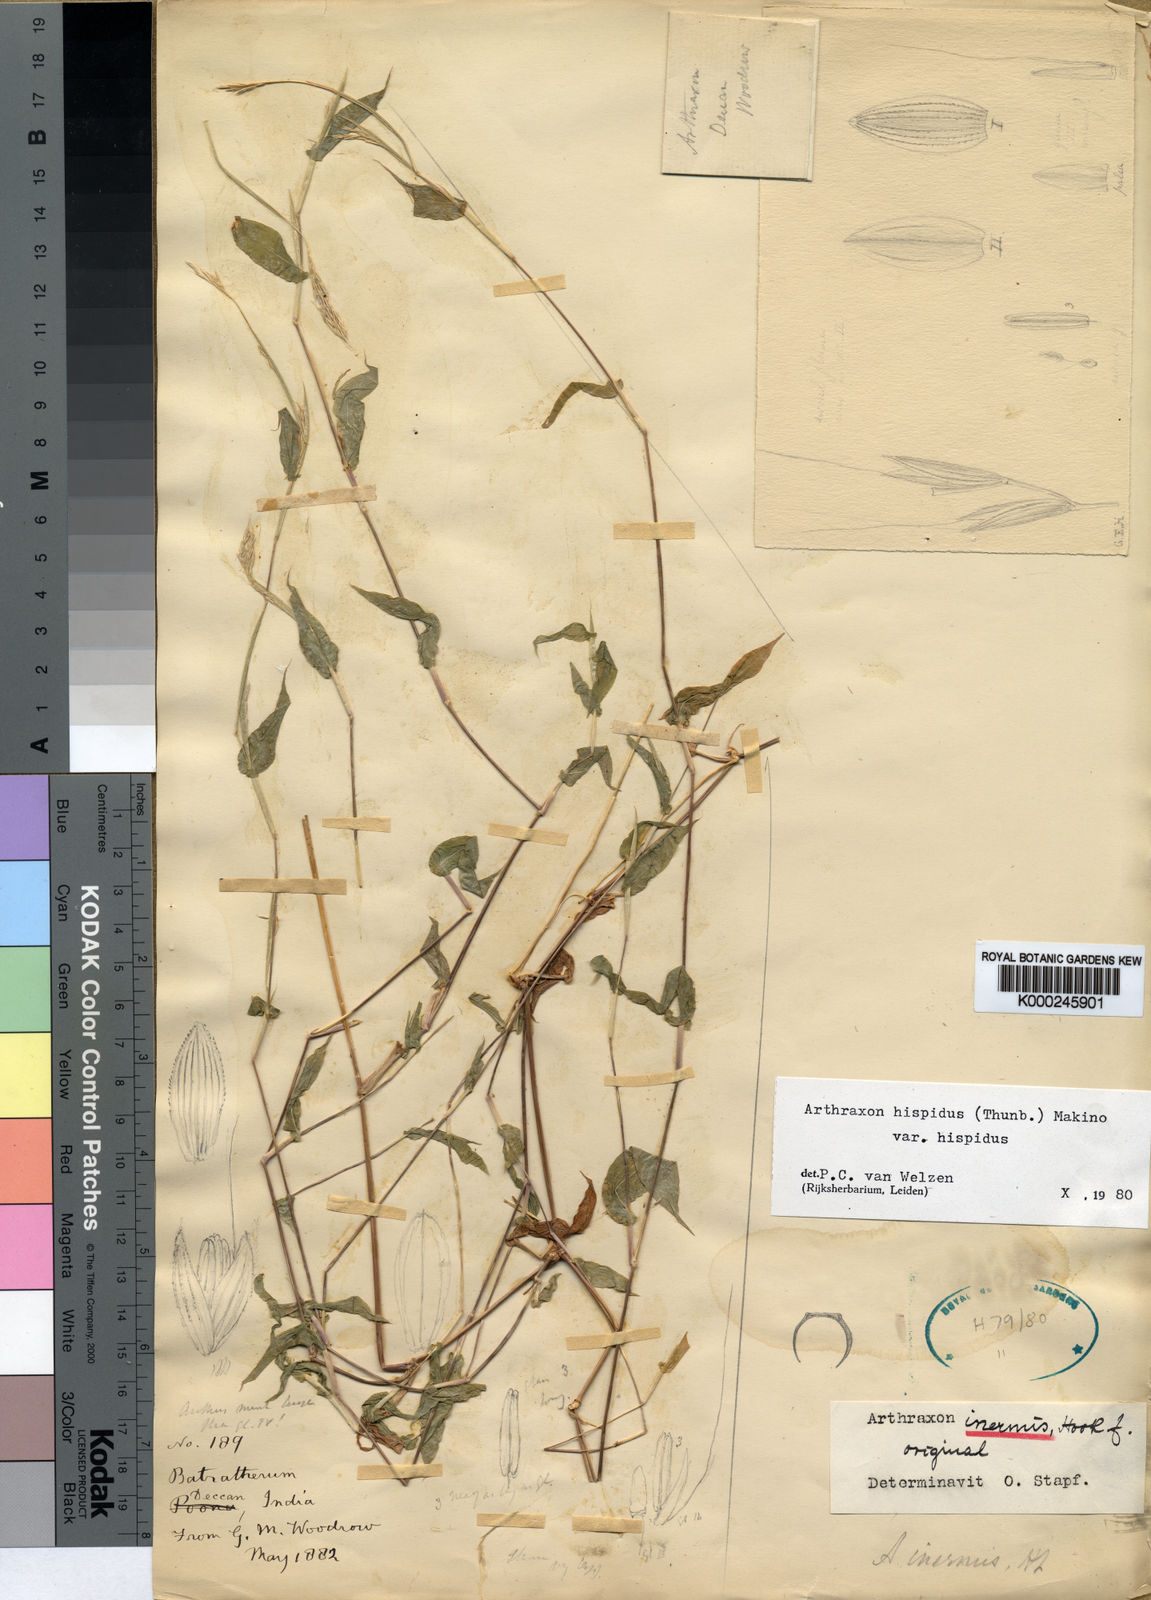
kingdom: Plantae
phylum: Tracheophyta
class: Liliopsida
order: Poales
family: Poaceae
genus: Arthraxon
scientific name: Arthraxon inermis
